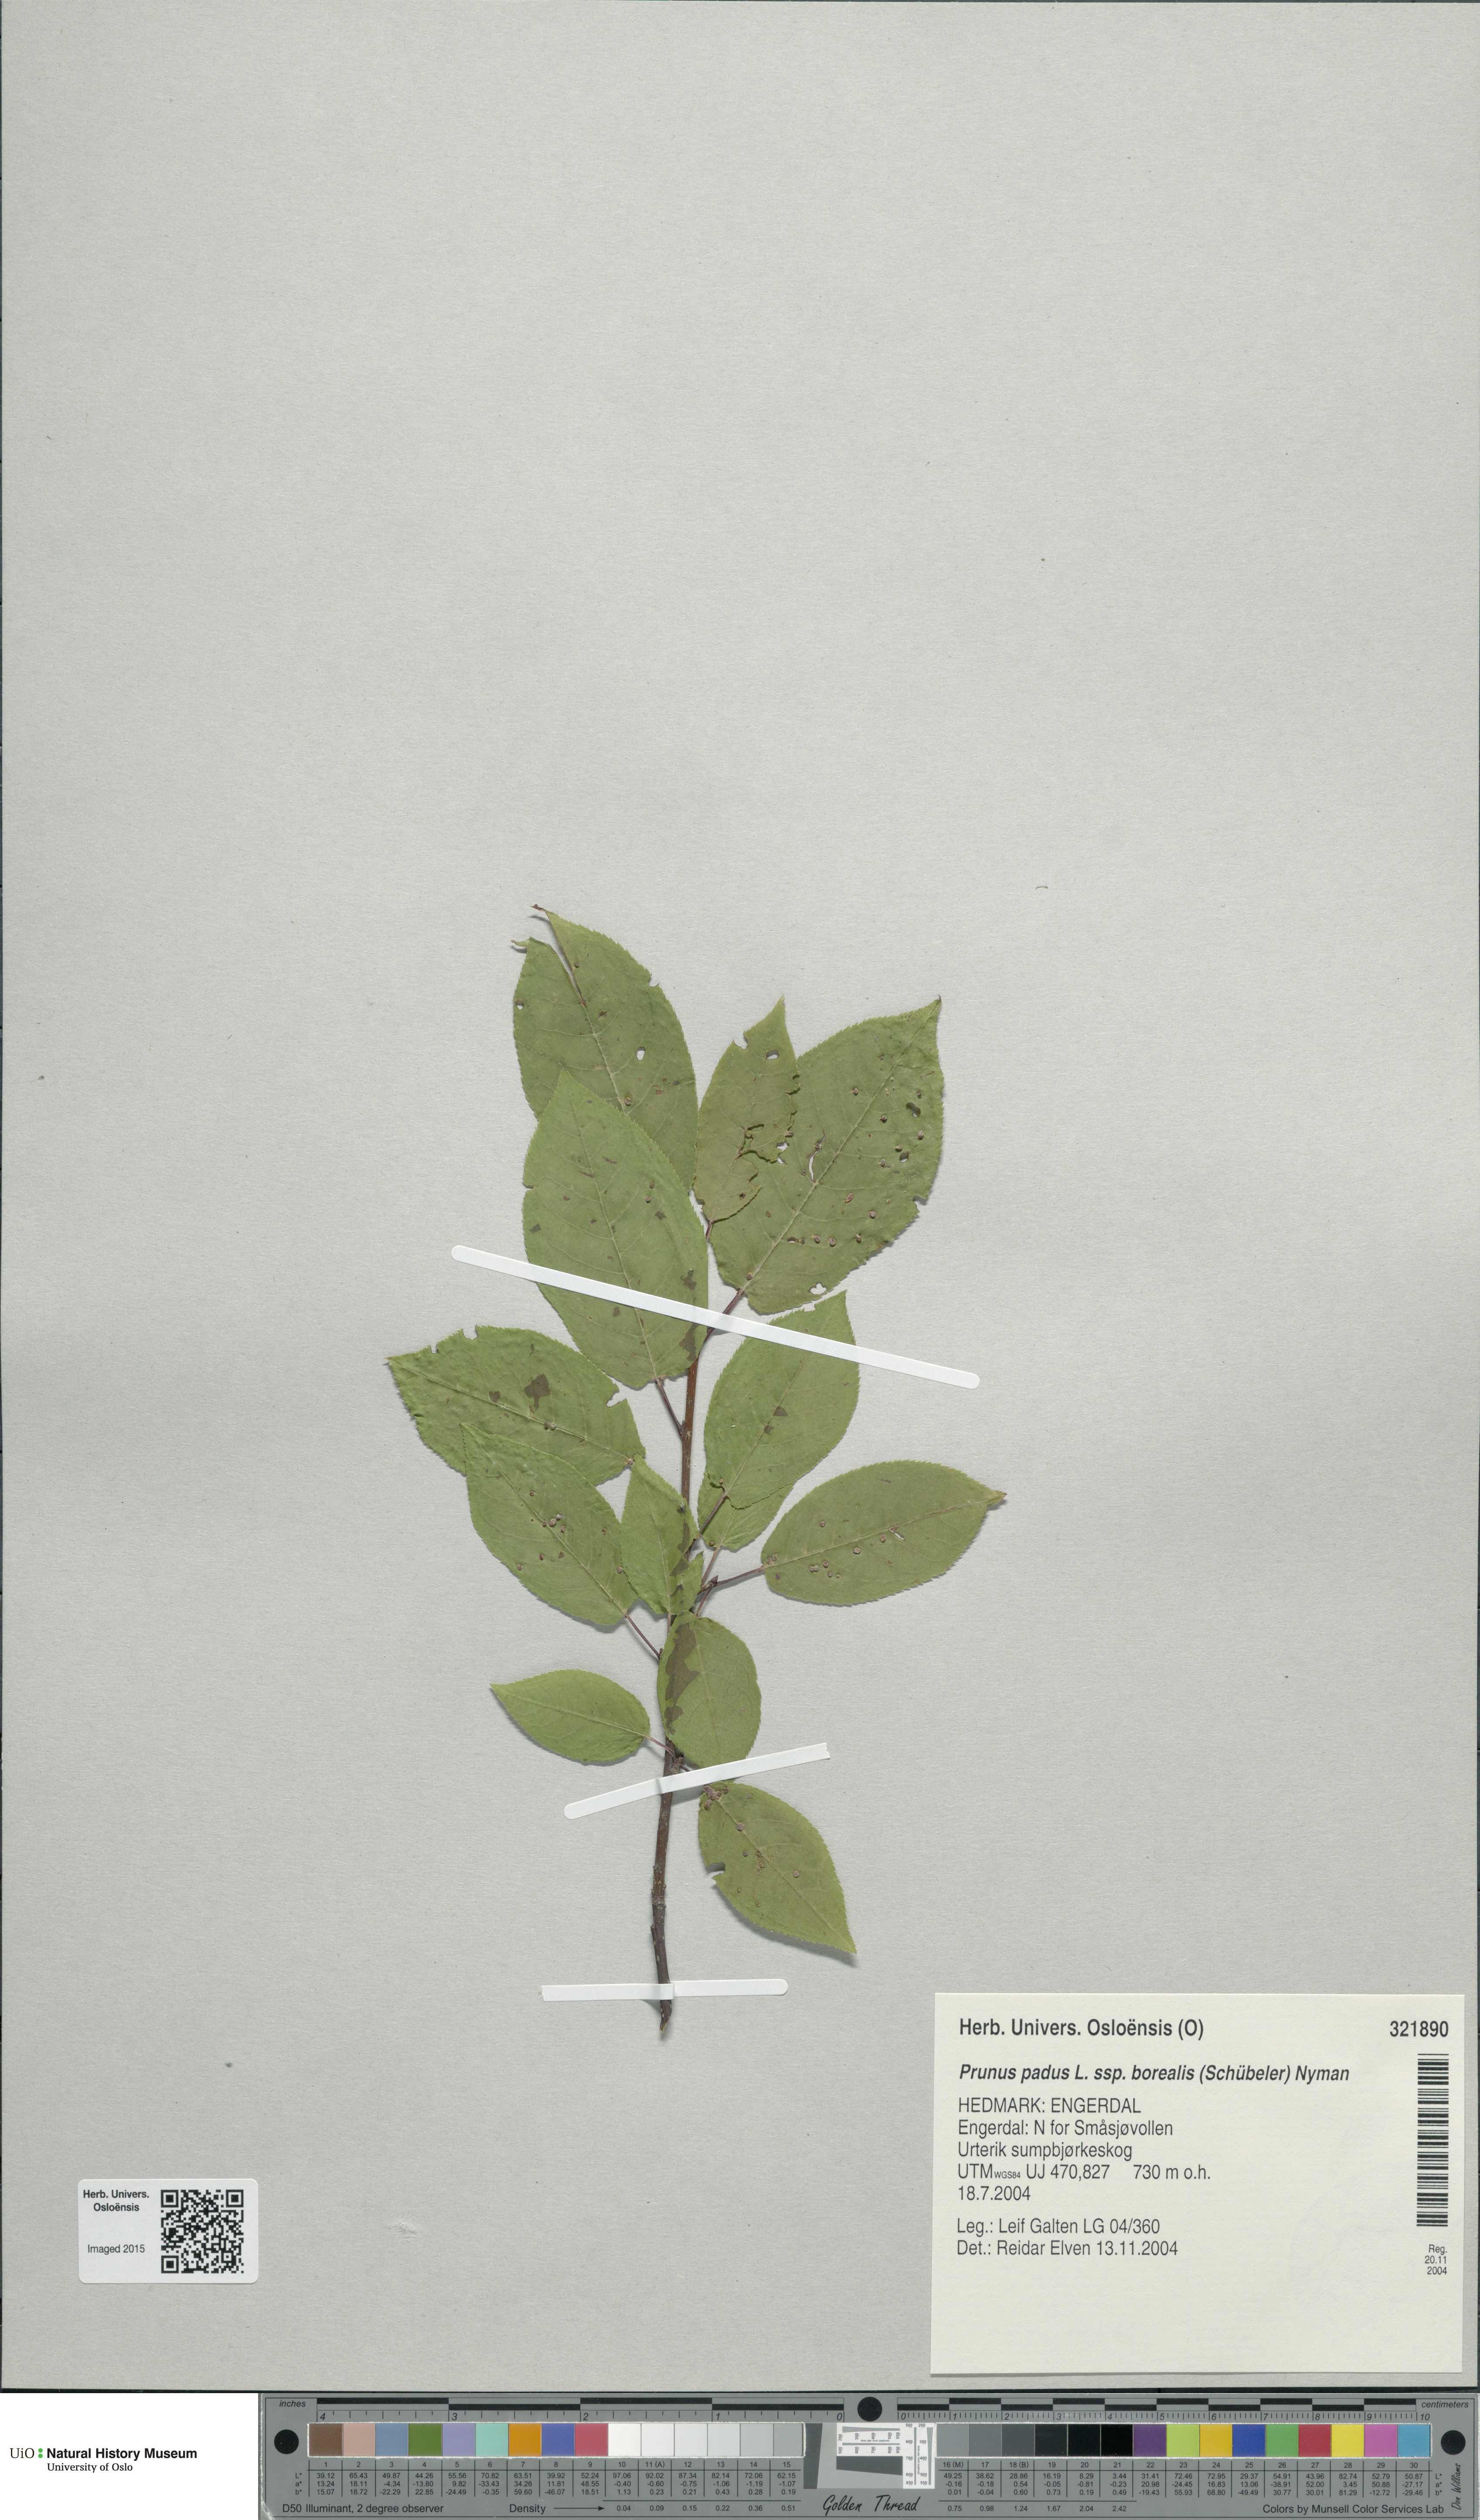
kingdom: Plantae
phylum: Tracheophyta
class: Magnoliopsida
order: Rosales
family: Rosaceae
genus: Prunus
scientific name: Prunus padus
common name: Bird cherry
